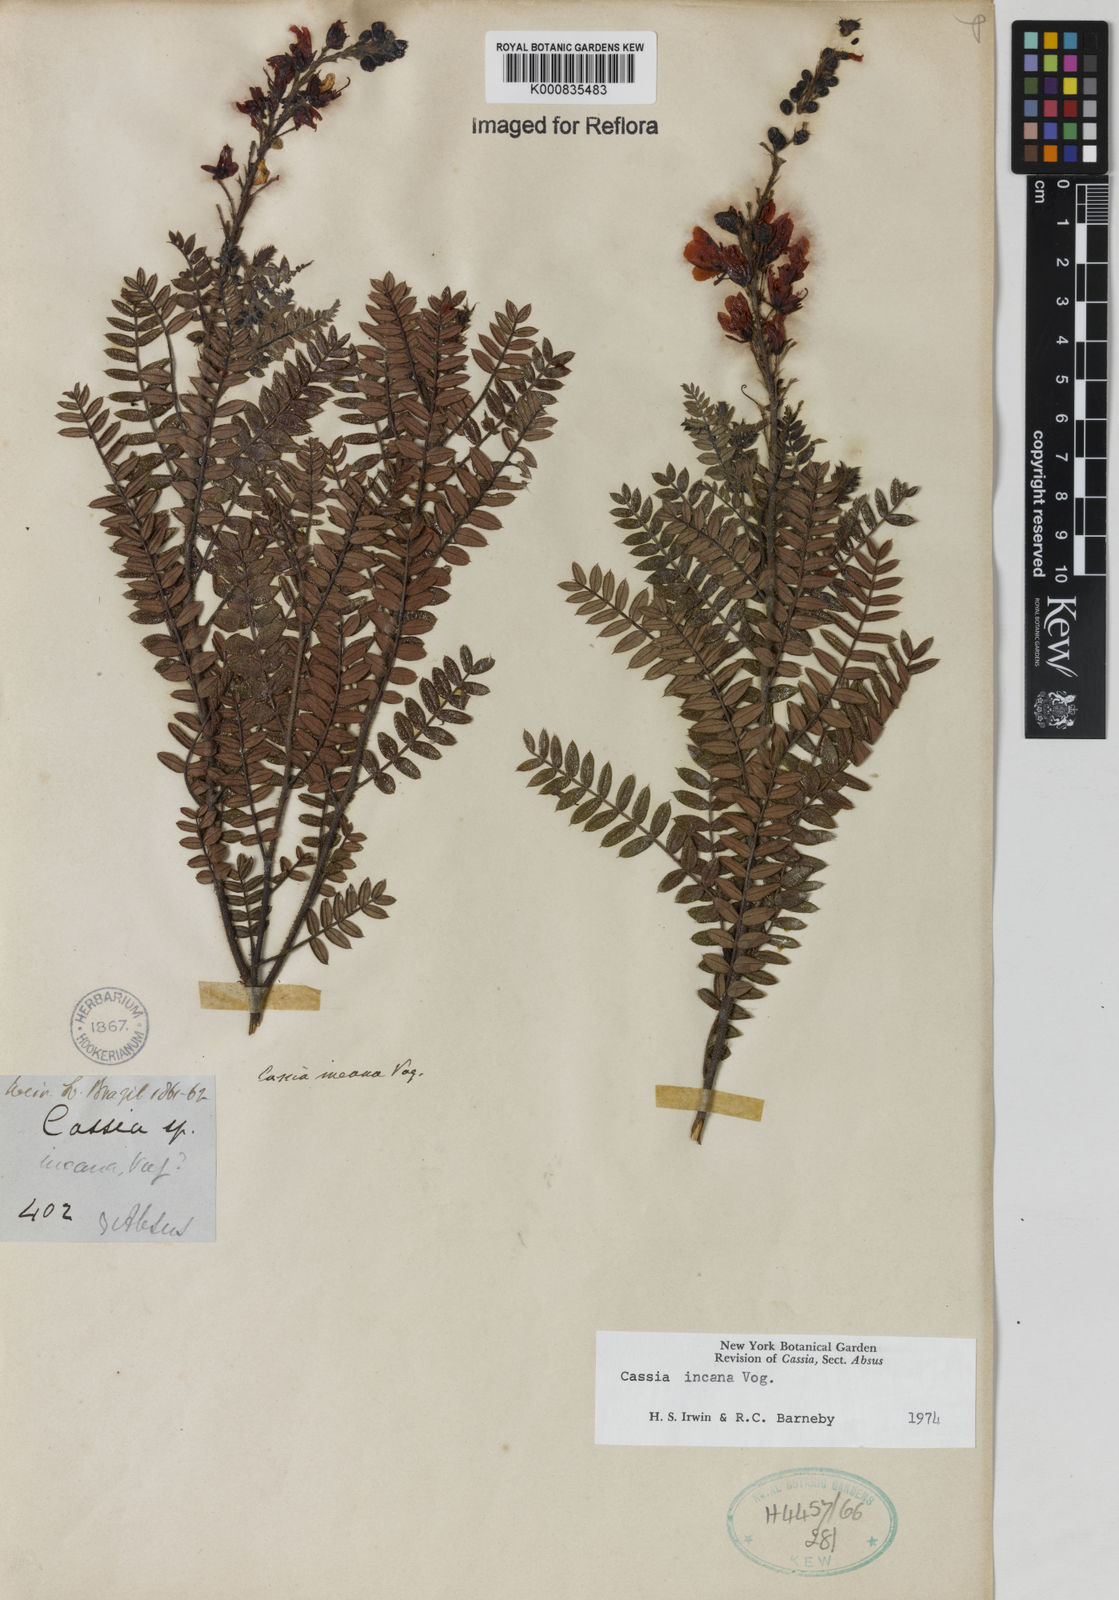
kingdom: Plantae
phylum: Tracheophyta
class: Magnoliopsida
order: Fabales
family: Fabaceae
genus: Chamaecrista
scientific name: Chamaecrista incana
